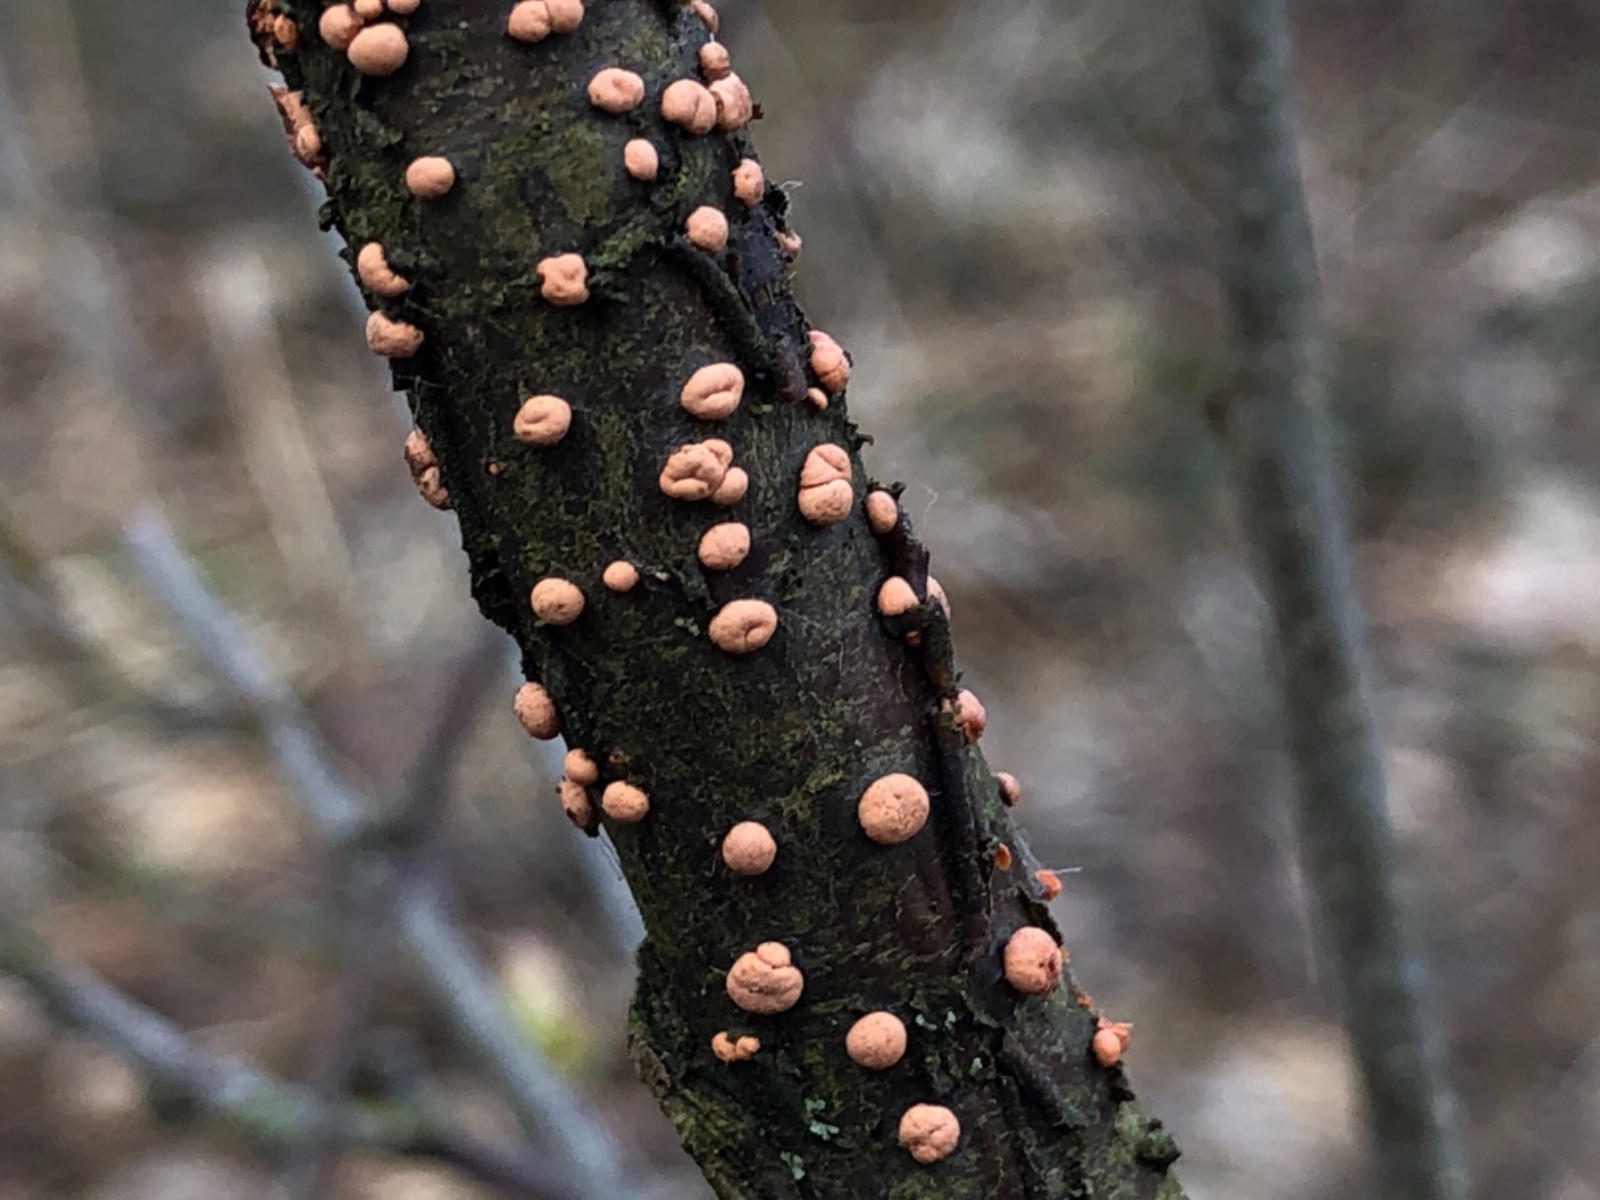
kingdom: Fungi
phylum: Ascomycota
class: Sordariomycetes
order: Hypocreales
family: Nectriaceae
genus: Nectria
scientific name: Nectria cinnabarina
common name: almindelig cinnobersvamp
